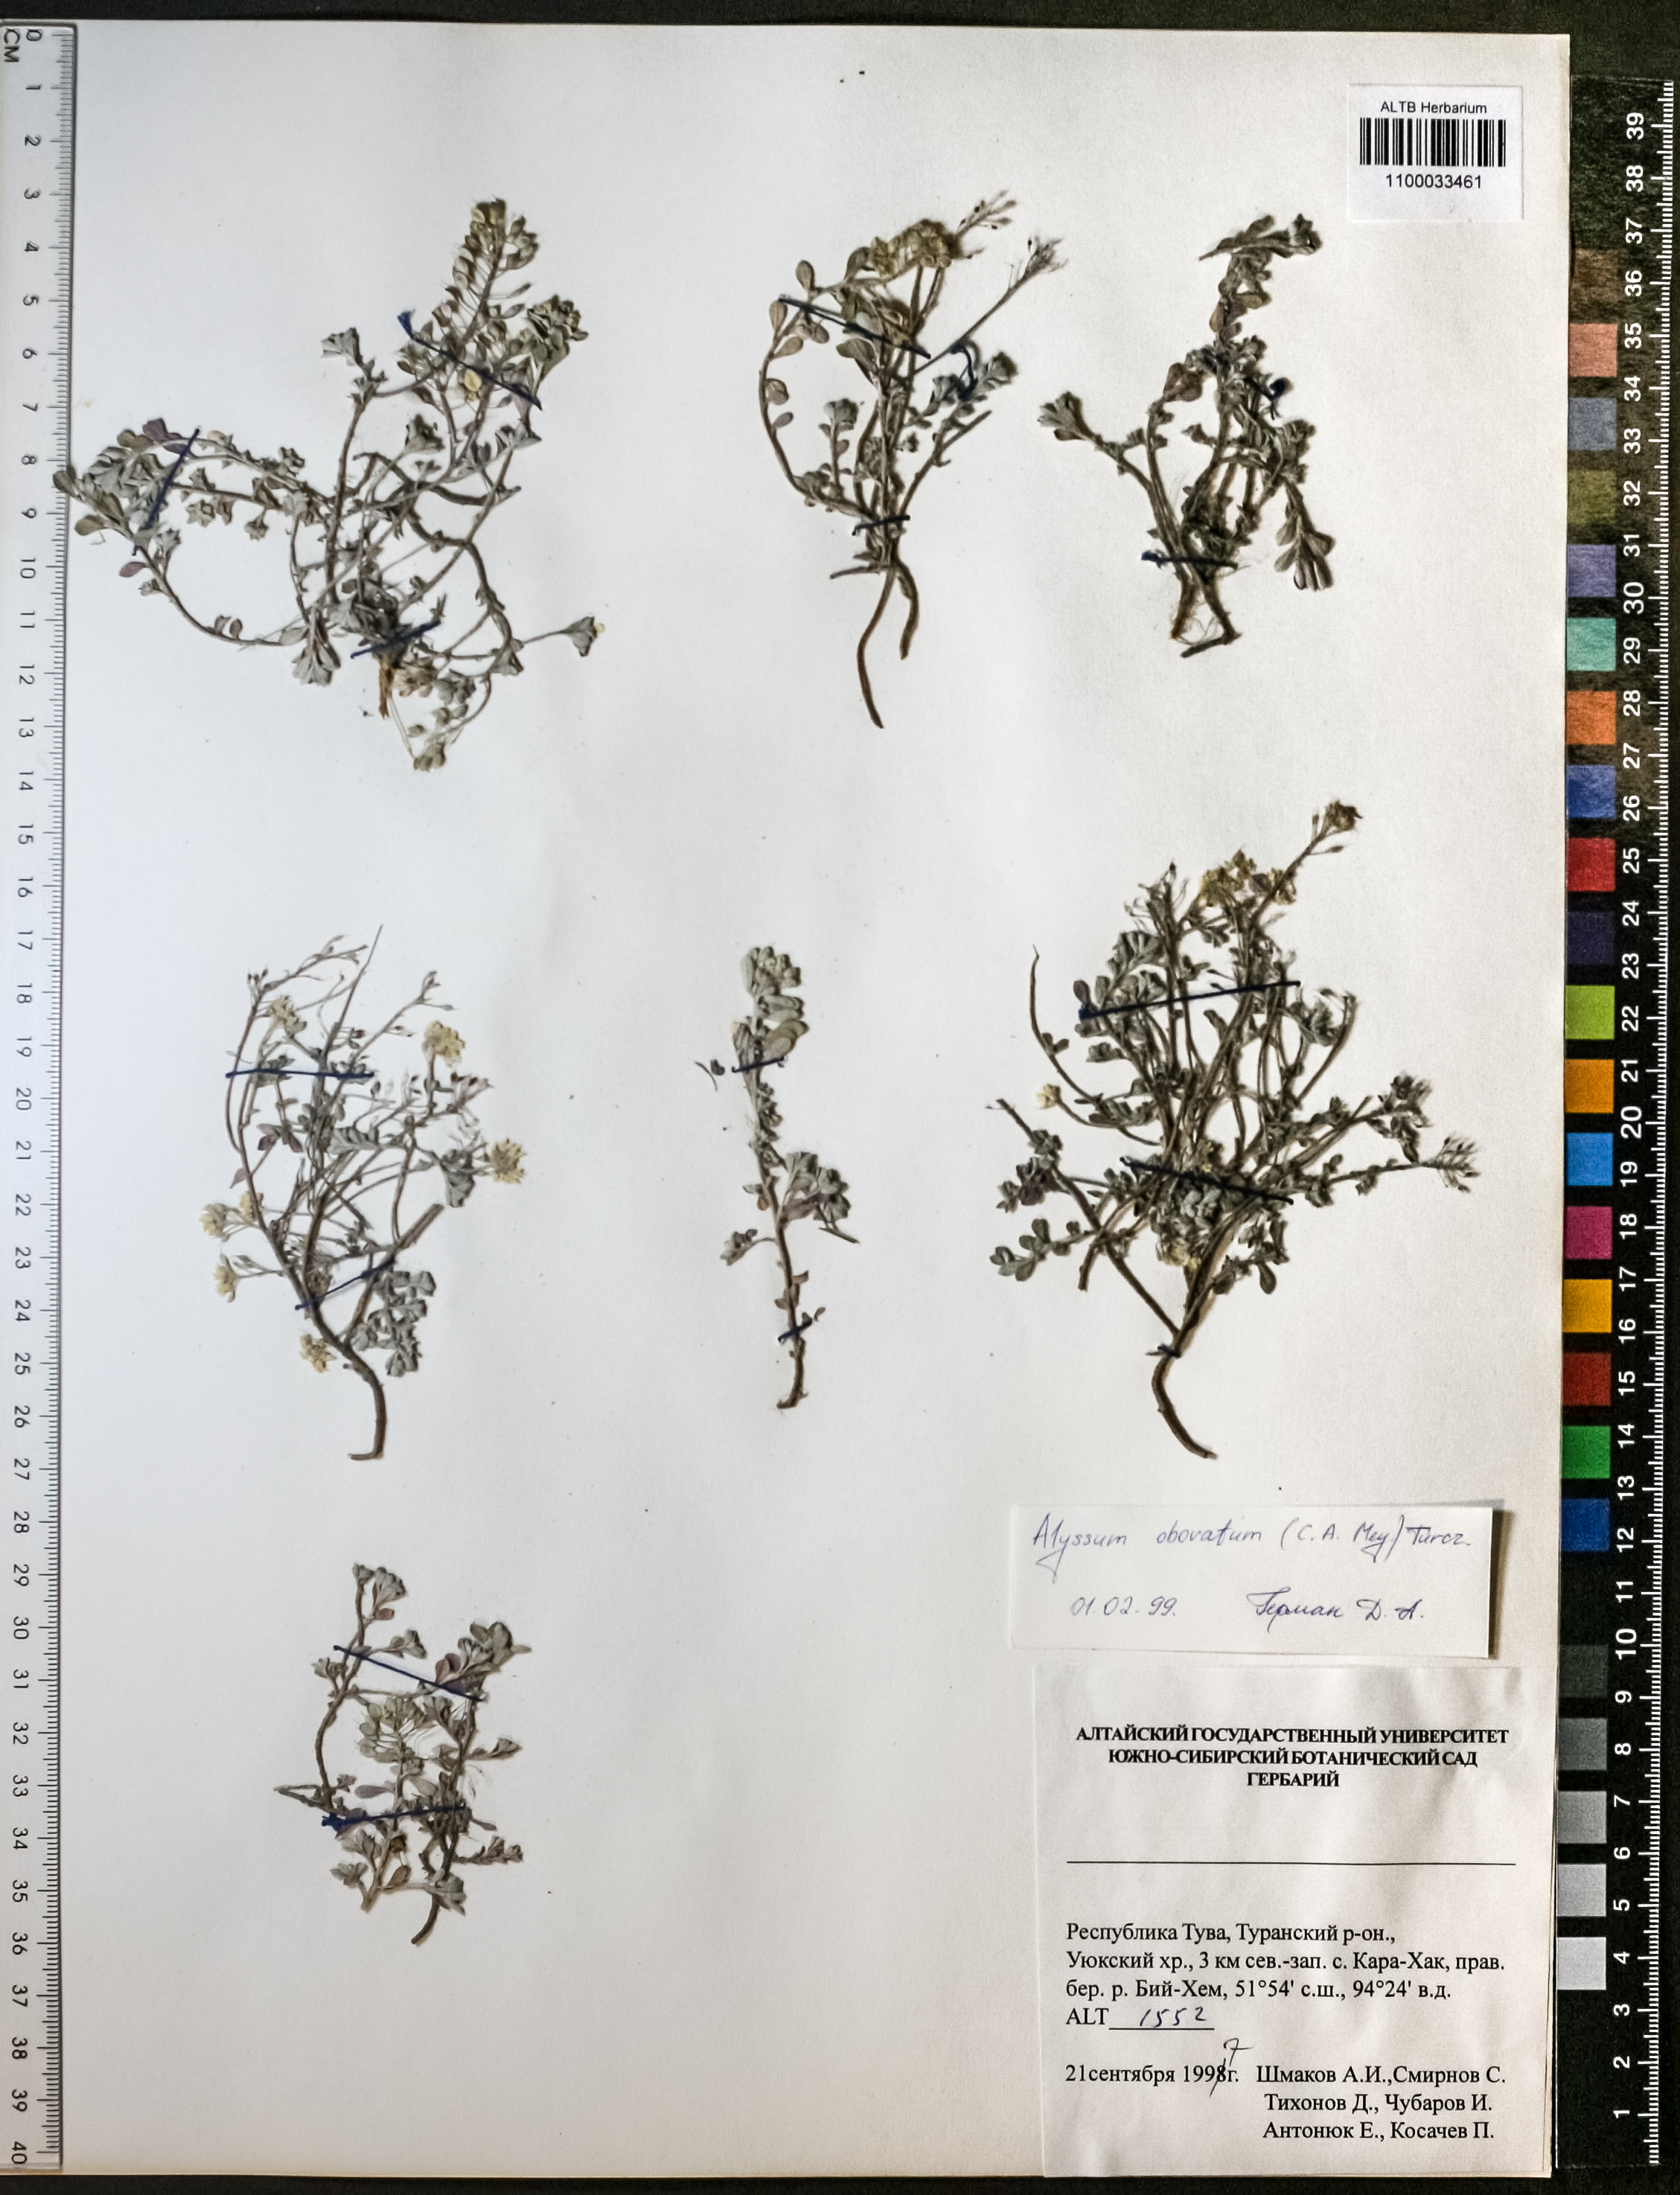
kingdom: Plantae
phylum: Tracheophyta
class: Magnoliopsida
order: Brassicales
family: Brassicaceae
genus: Odontarrhena
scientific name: Odontarrhena obovata
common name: American alyssum
